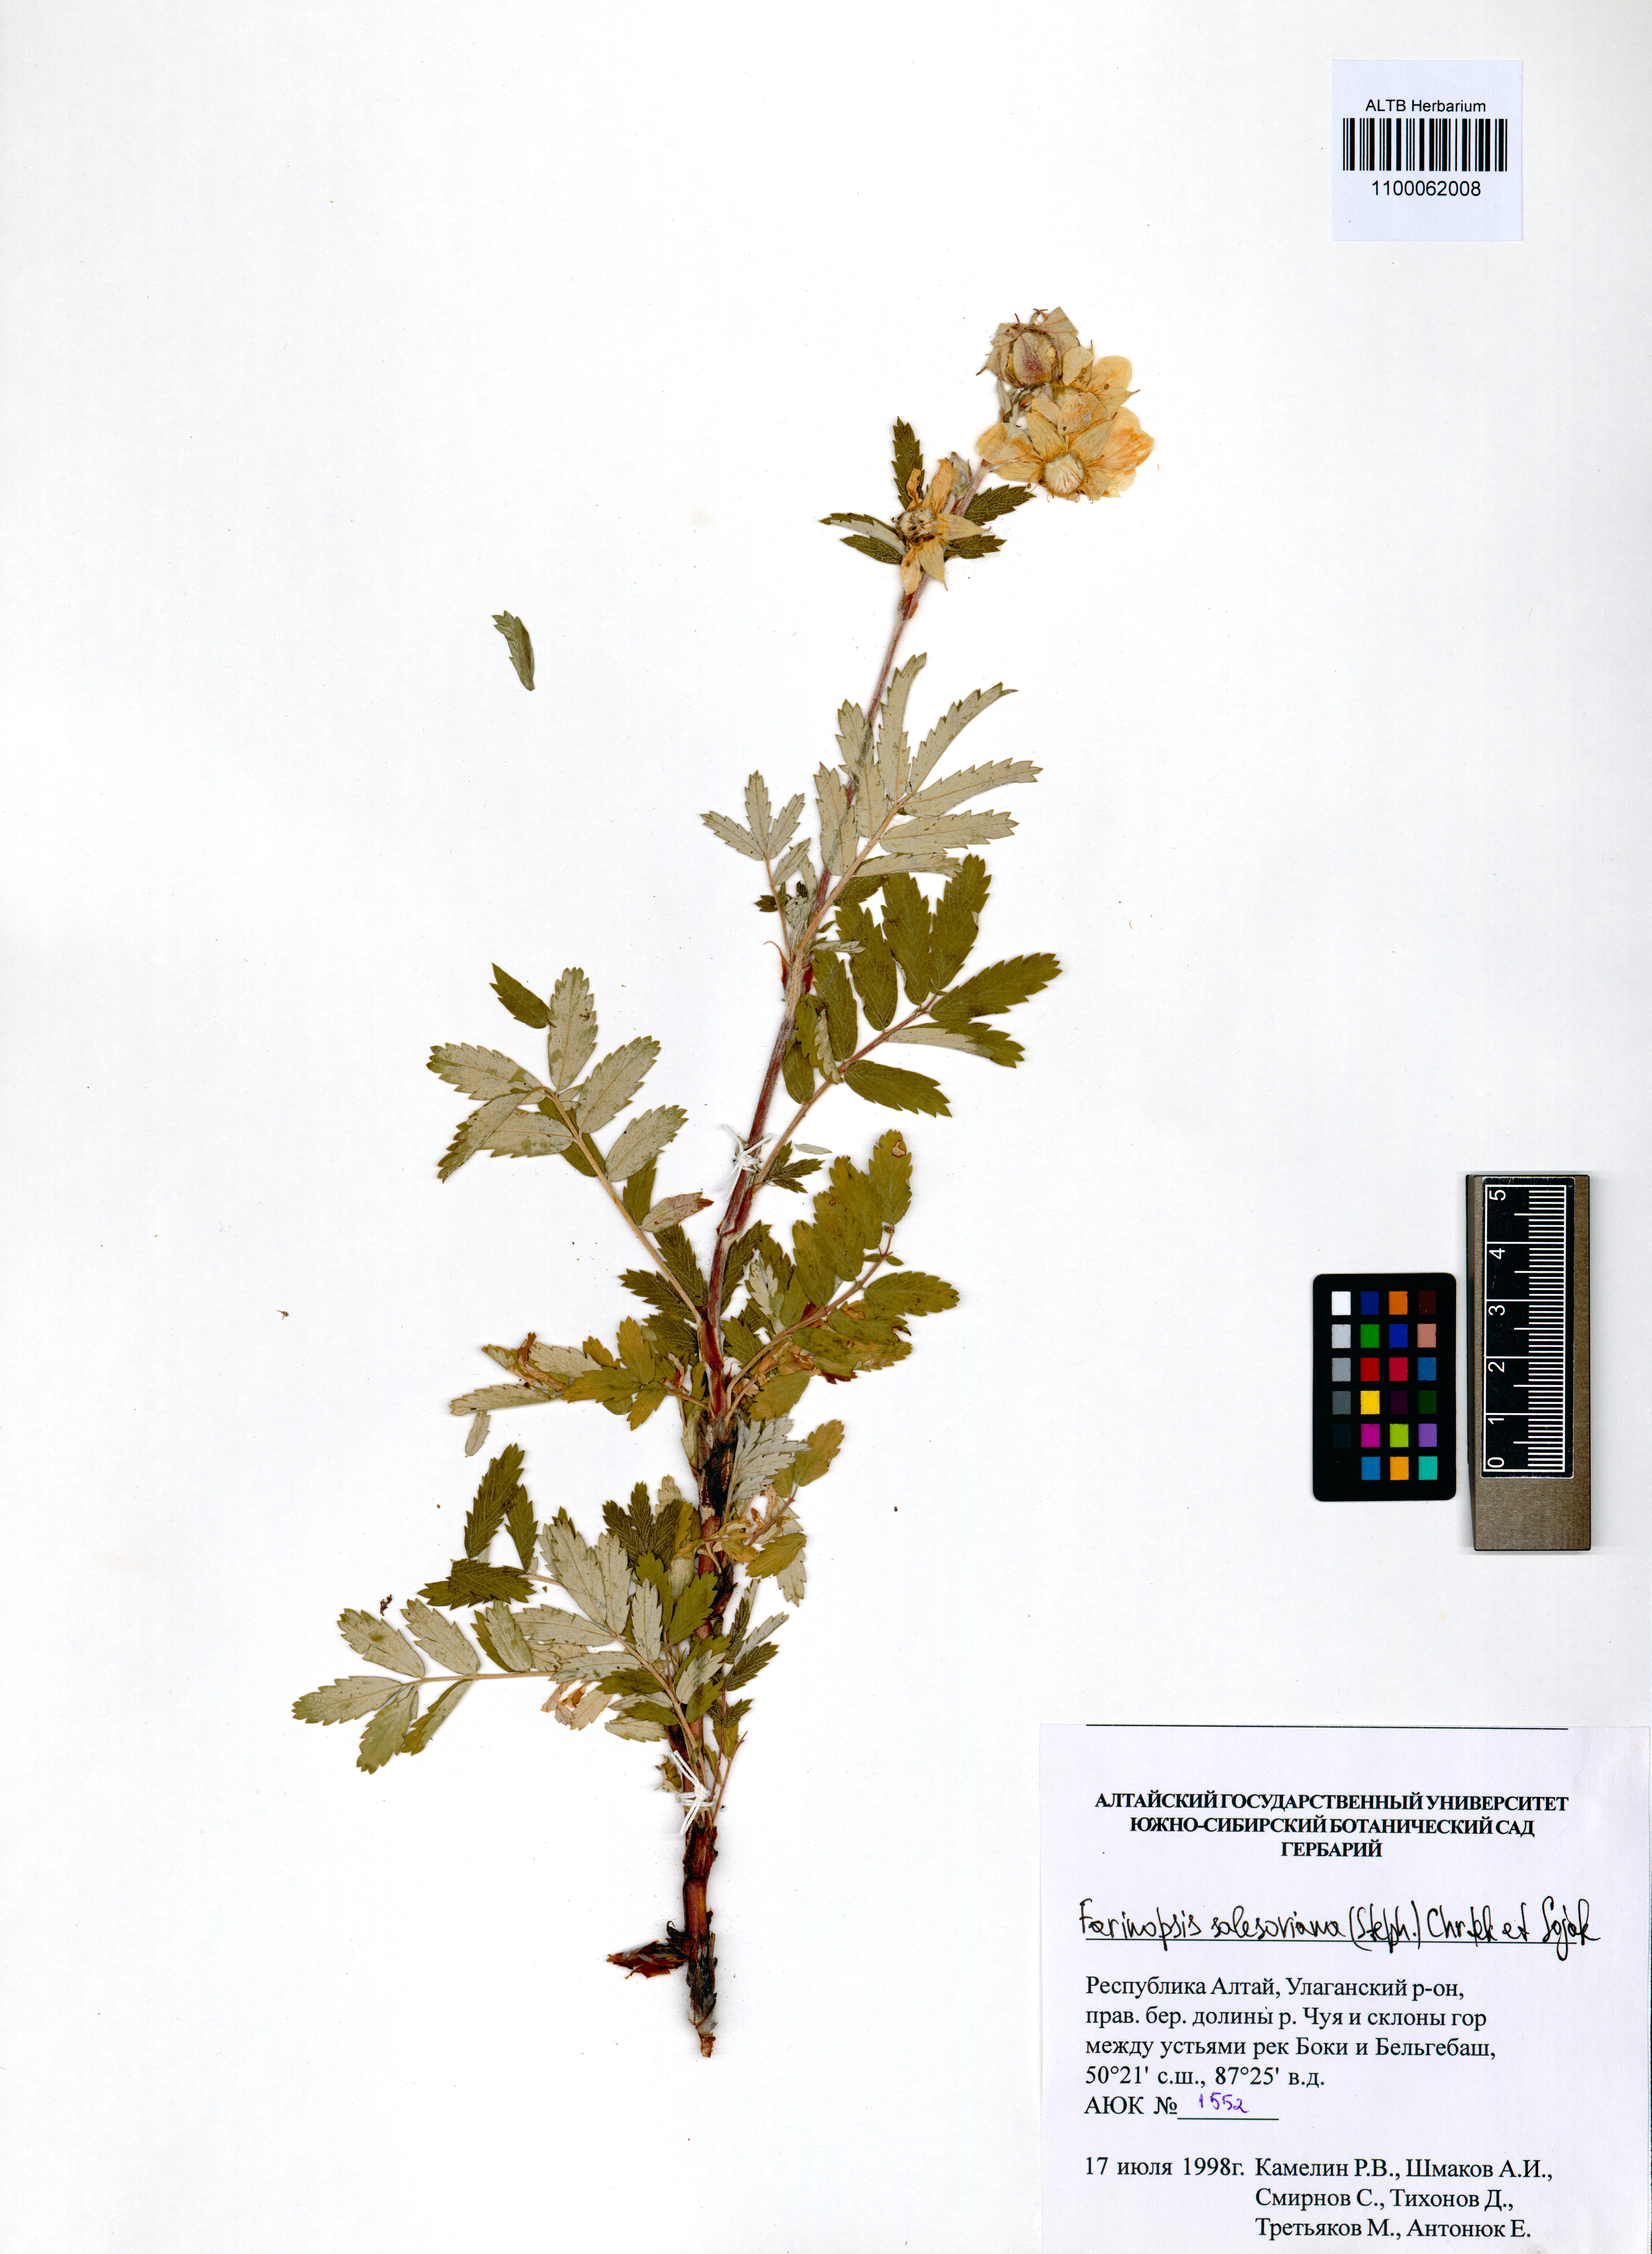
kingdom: Plantae
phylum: Tracheophyta
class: Magnoliopsida
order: Rosales
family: Rosaceae
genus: Farinopsis
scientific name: Farinopsis salesoviana
